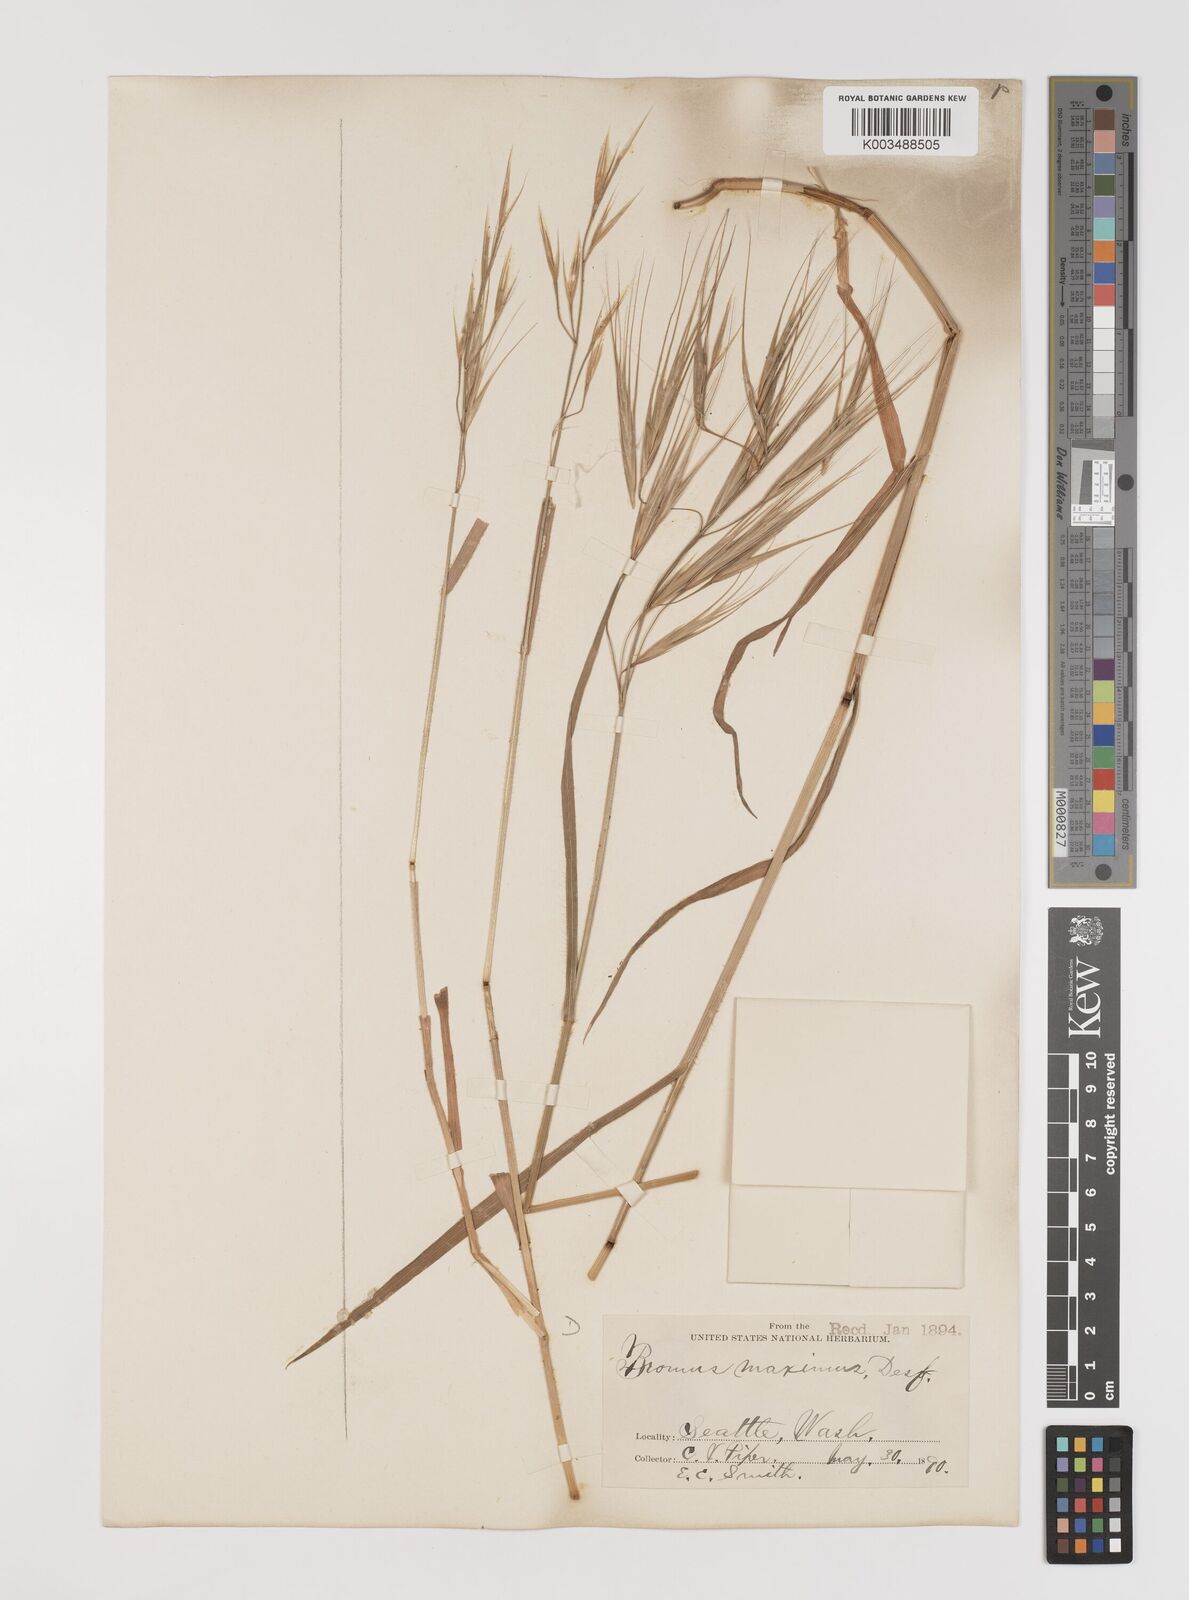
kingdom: Plantae
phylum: Tracheophyta
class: Liliopsida
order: Poales
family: Poaceae
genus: Bromus
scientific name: Bromus diandrus
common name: Ripgut brome
